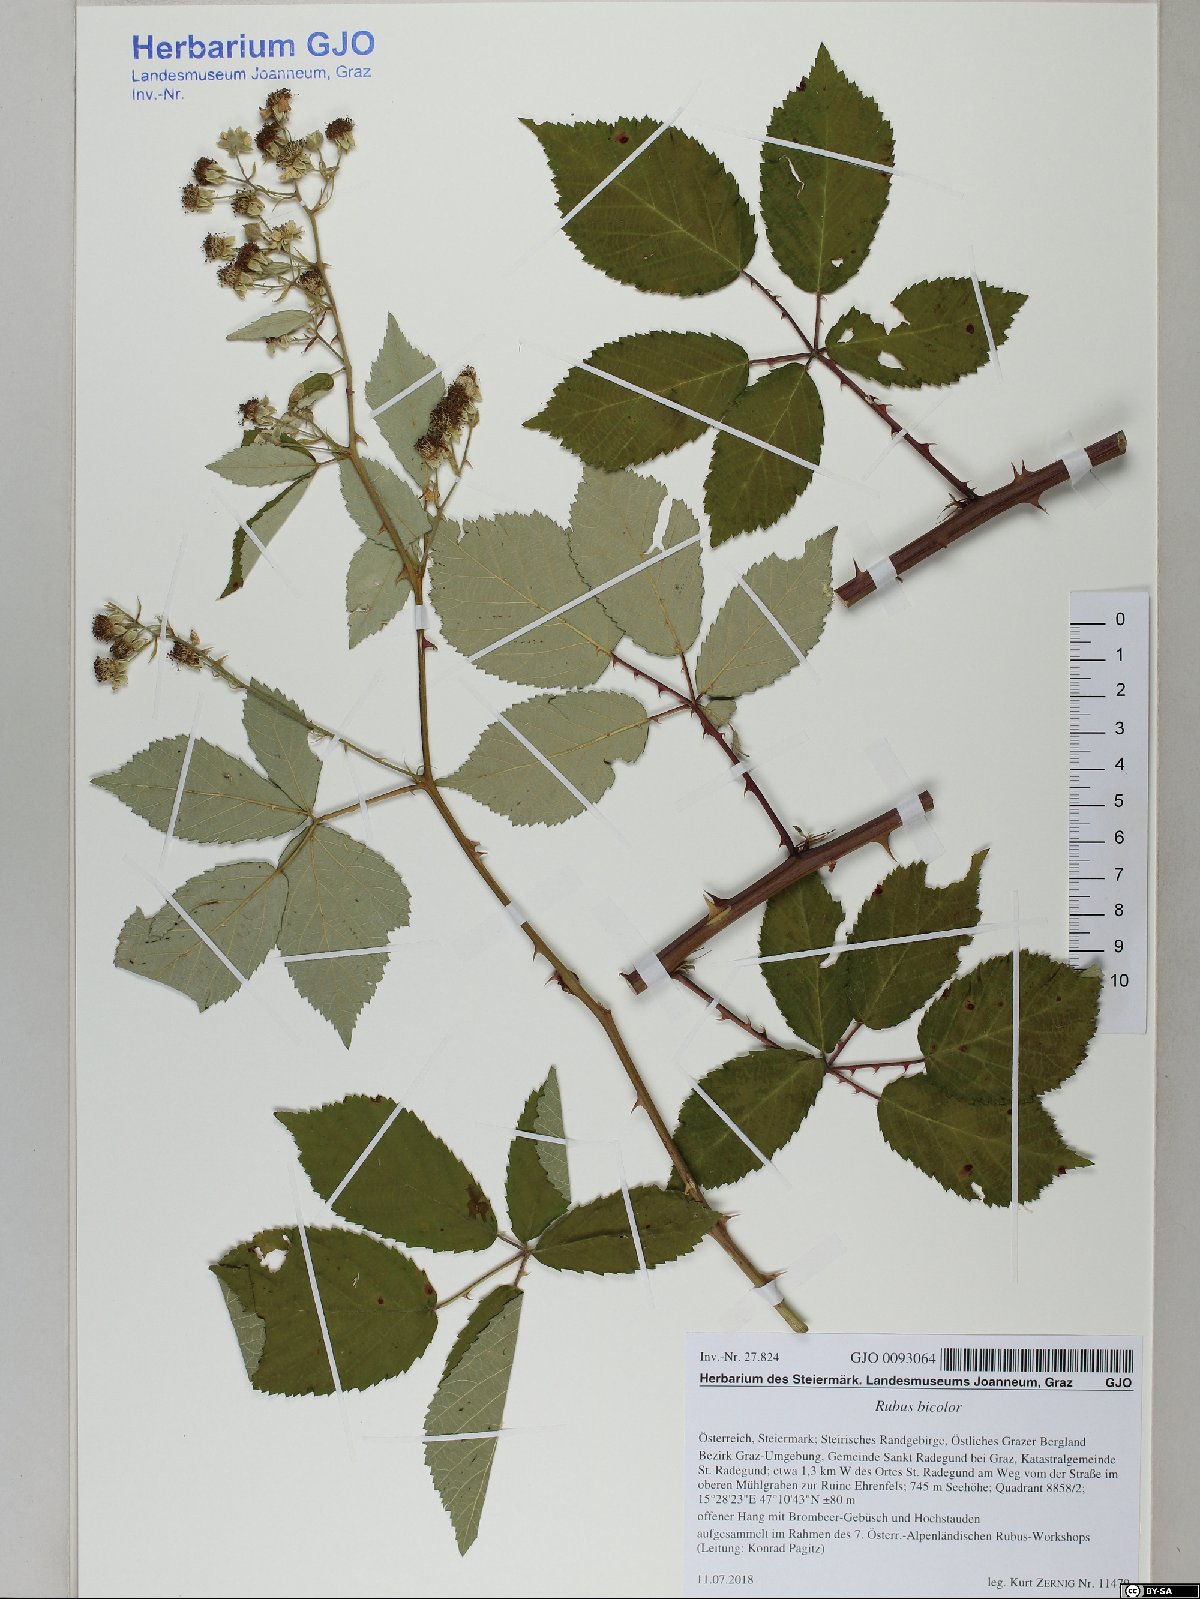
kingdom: Plantae
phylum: Tracheophyta
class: Magnoliopsida
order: Rosales
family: Rosaceae
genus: Rubus
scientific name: Rubus bicolor
